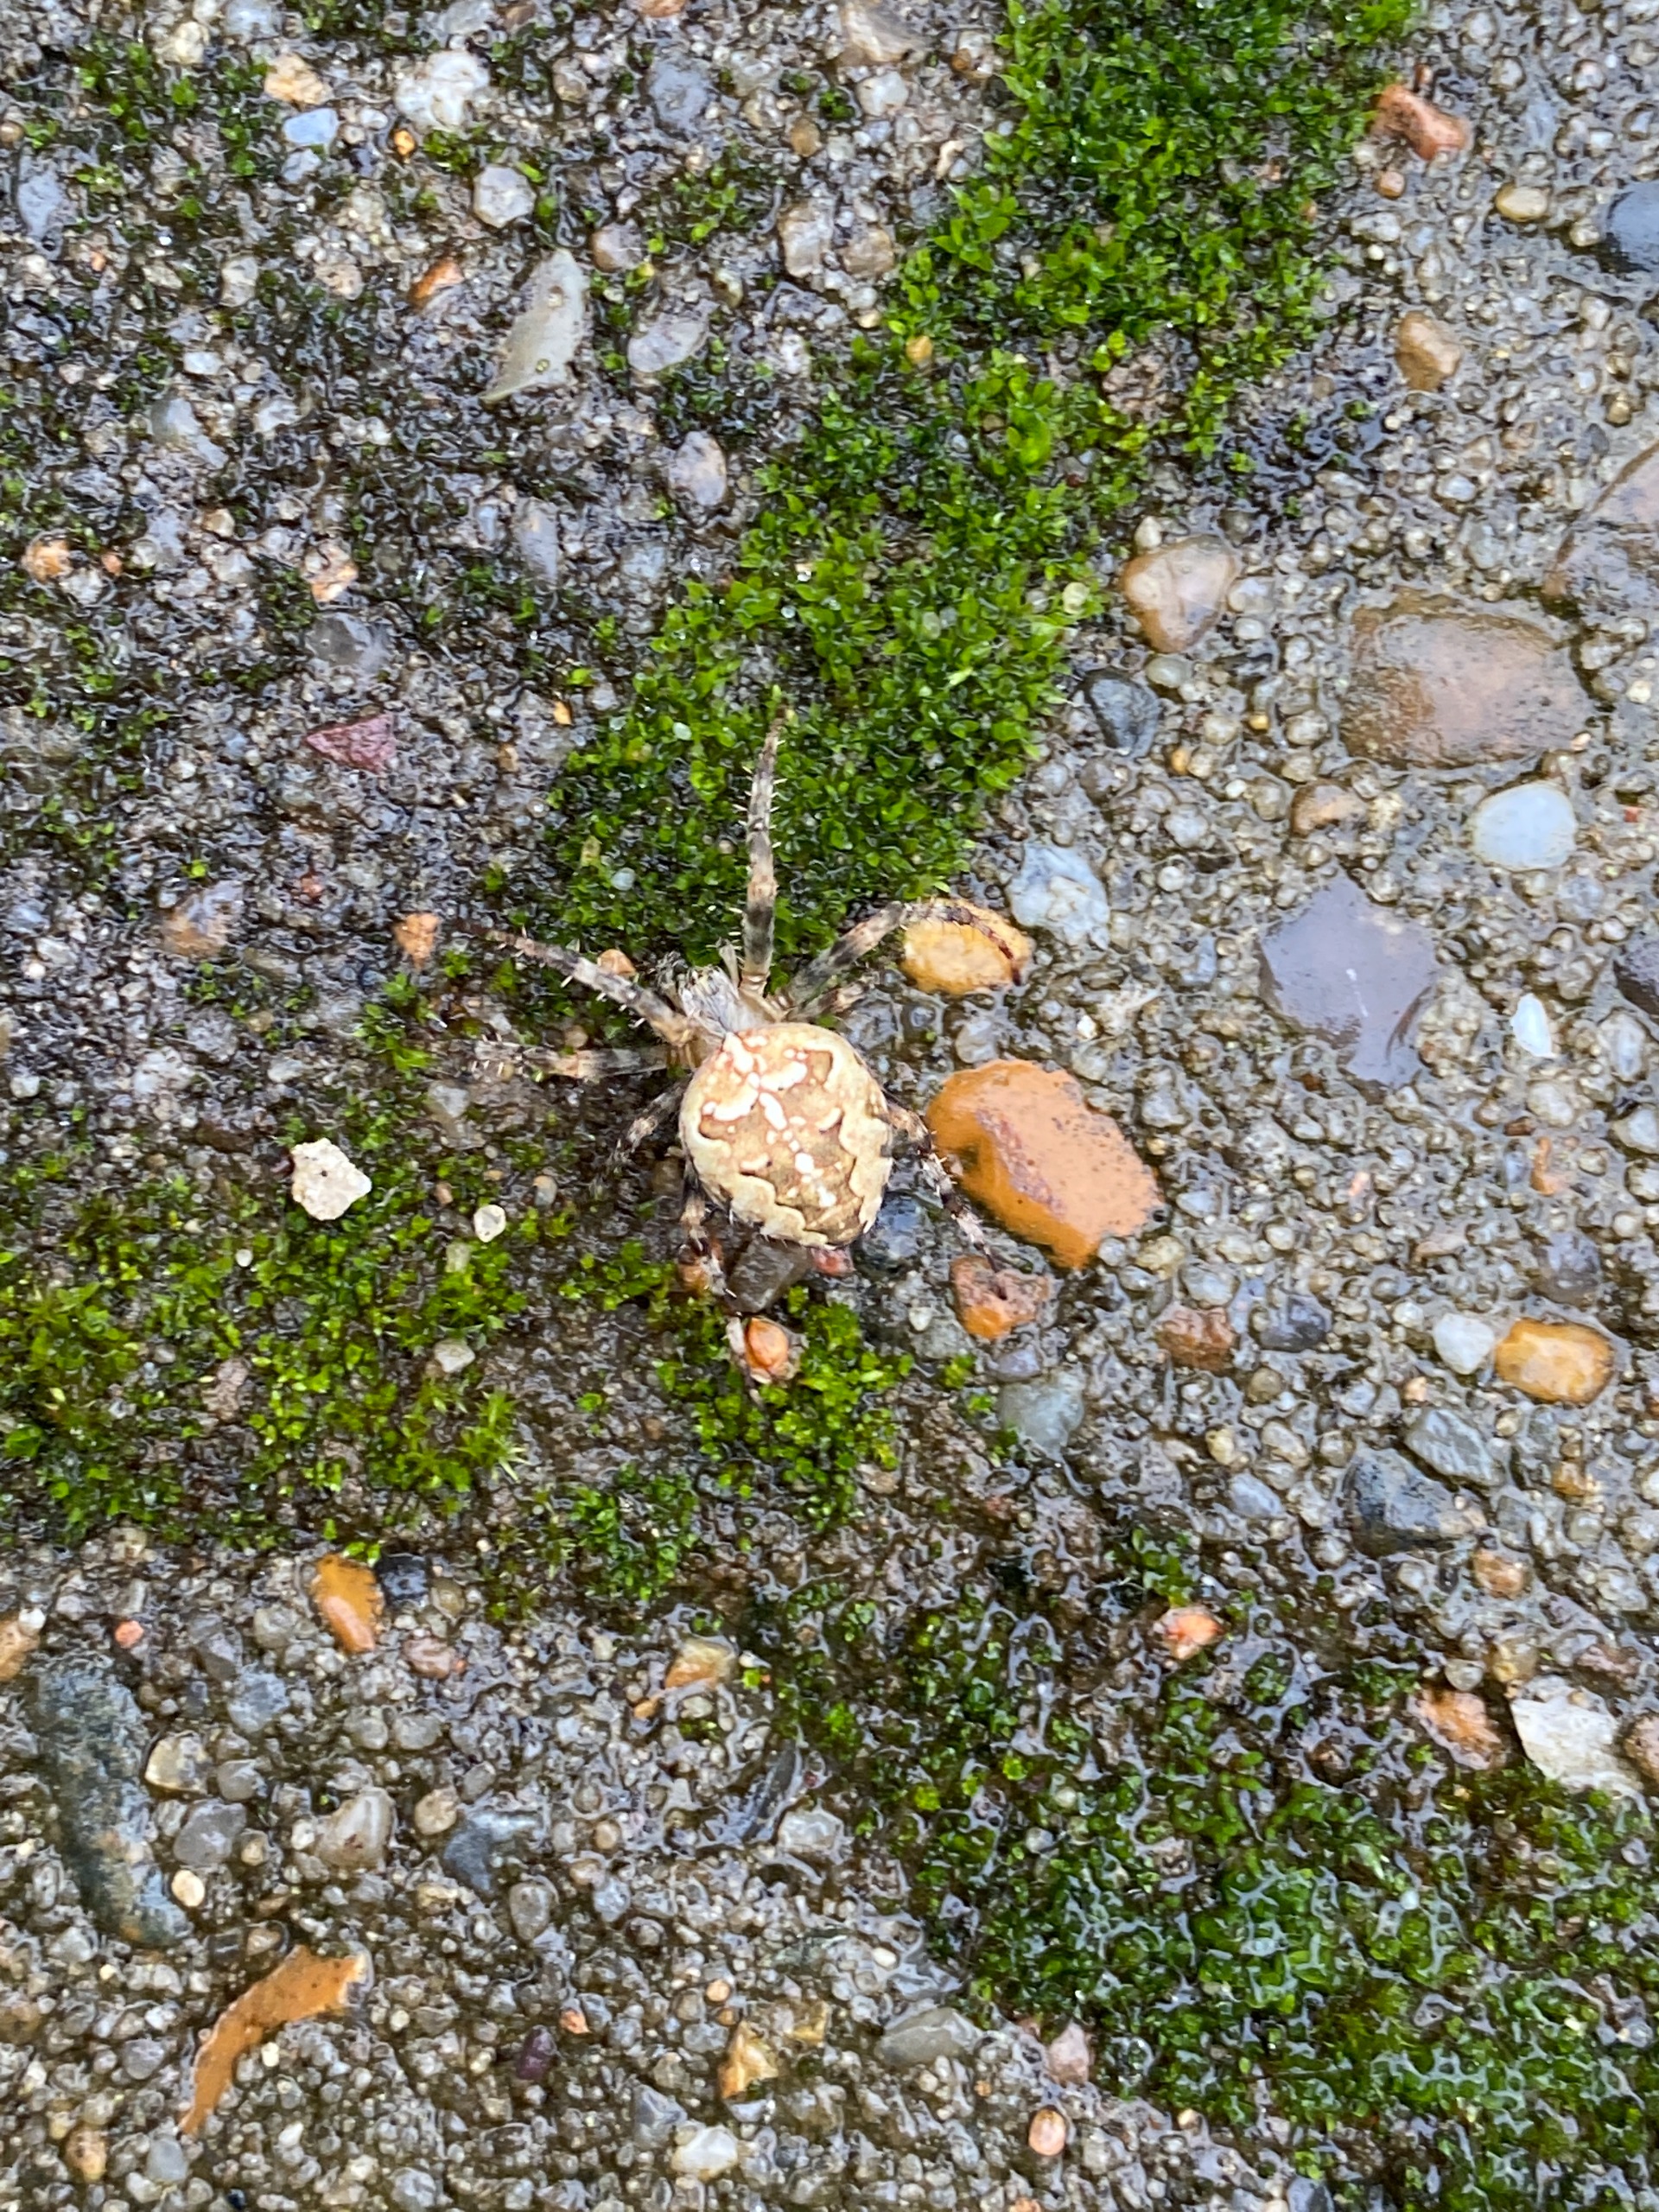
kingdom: Animalia
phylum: Arthropoda
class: Arachnida
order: Araneae
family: Araneidae
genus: Araneus
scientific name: Araneus diadematus
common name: Korsedderkop
